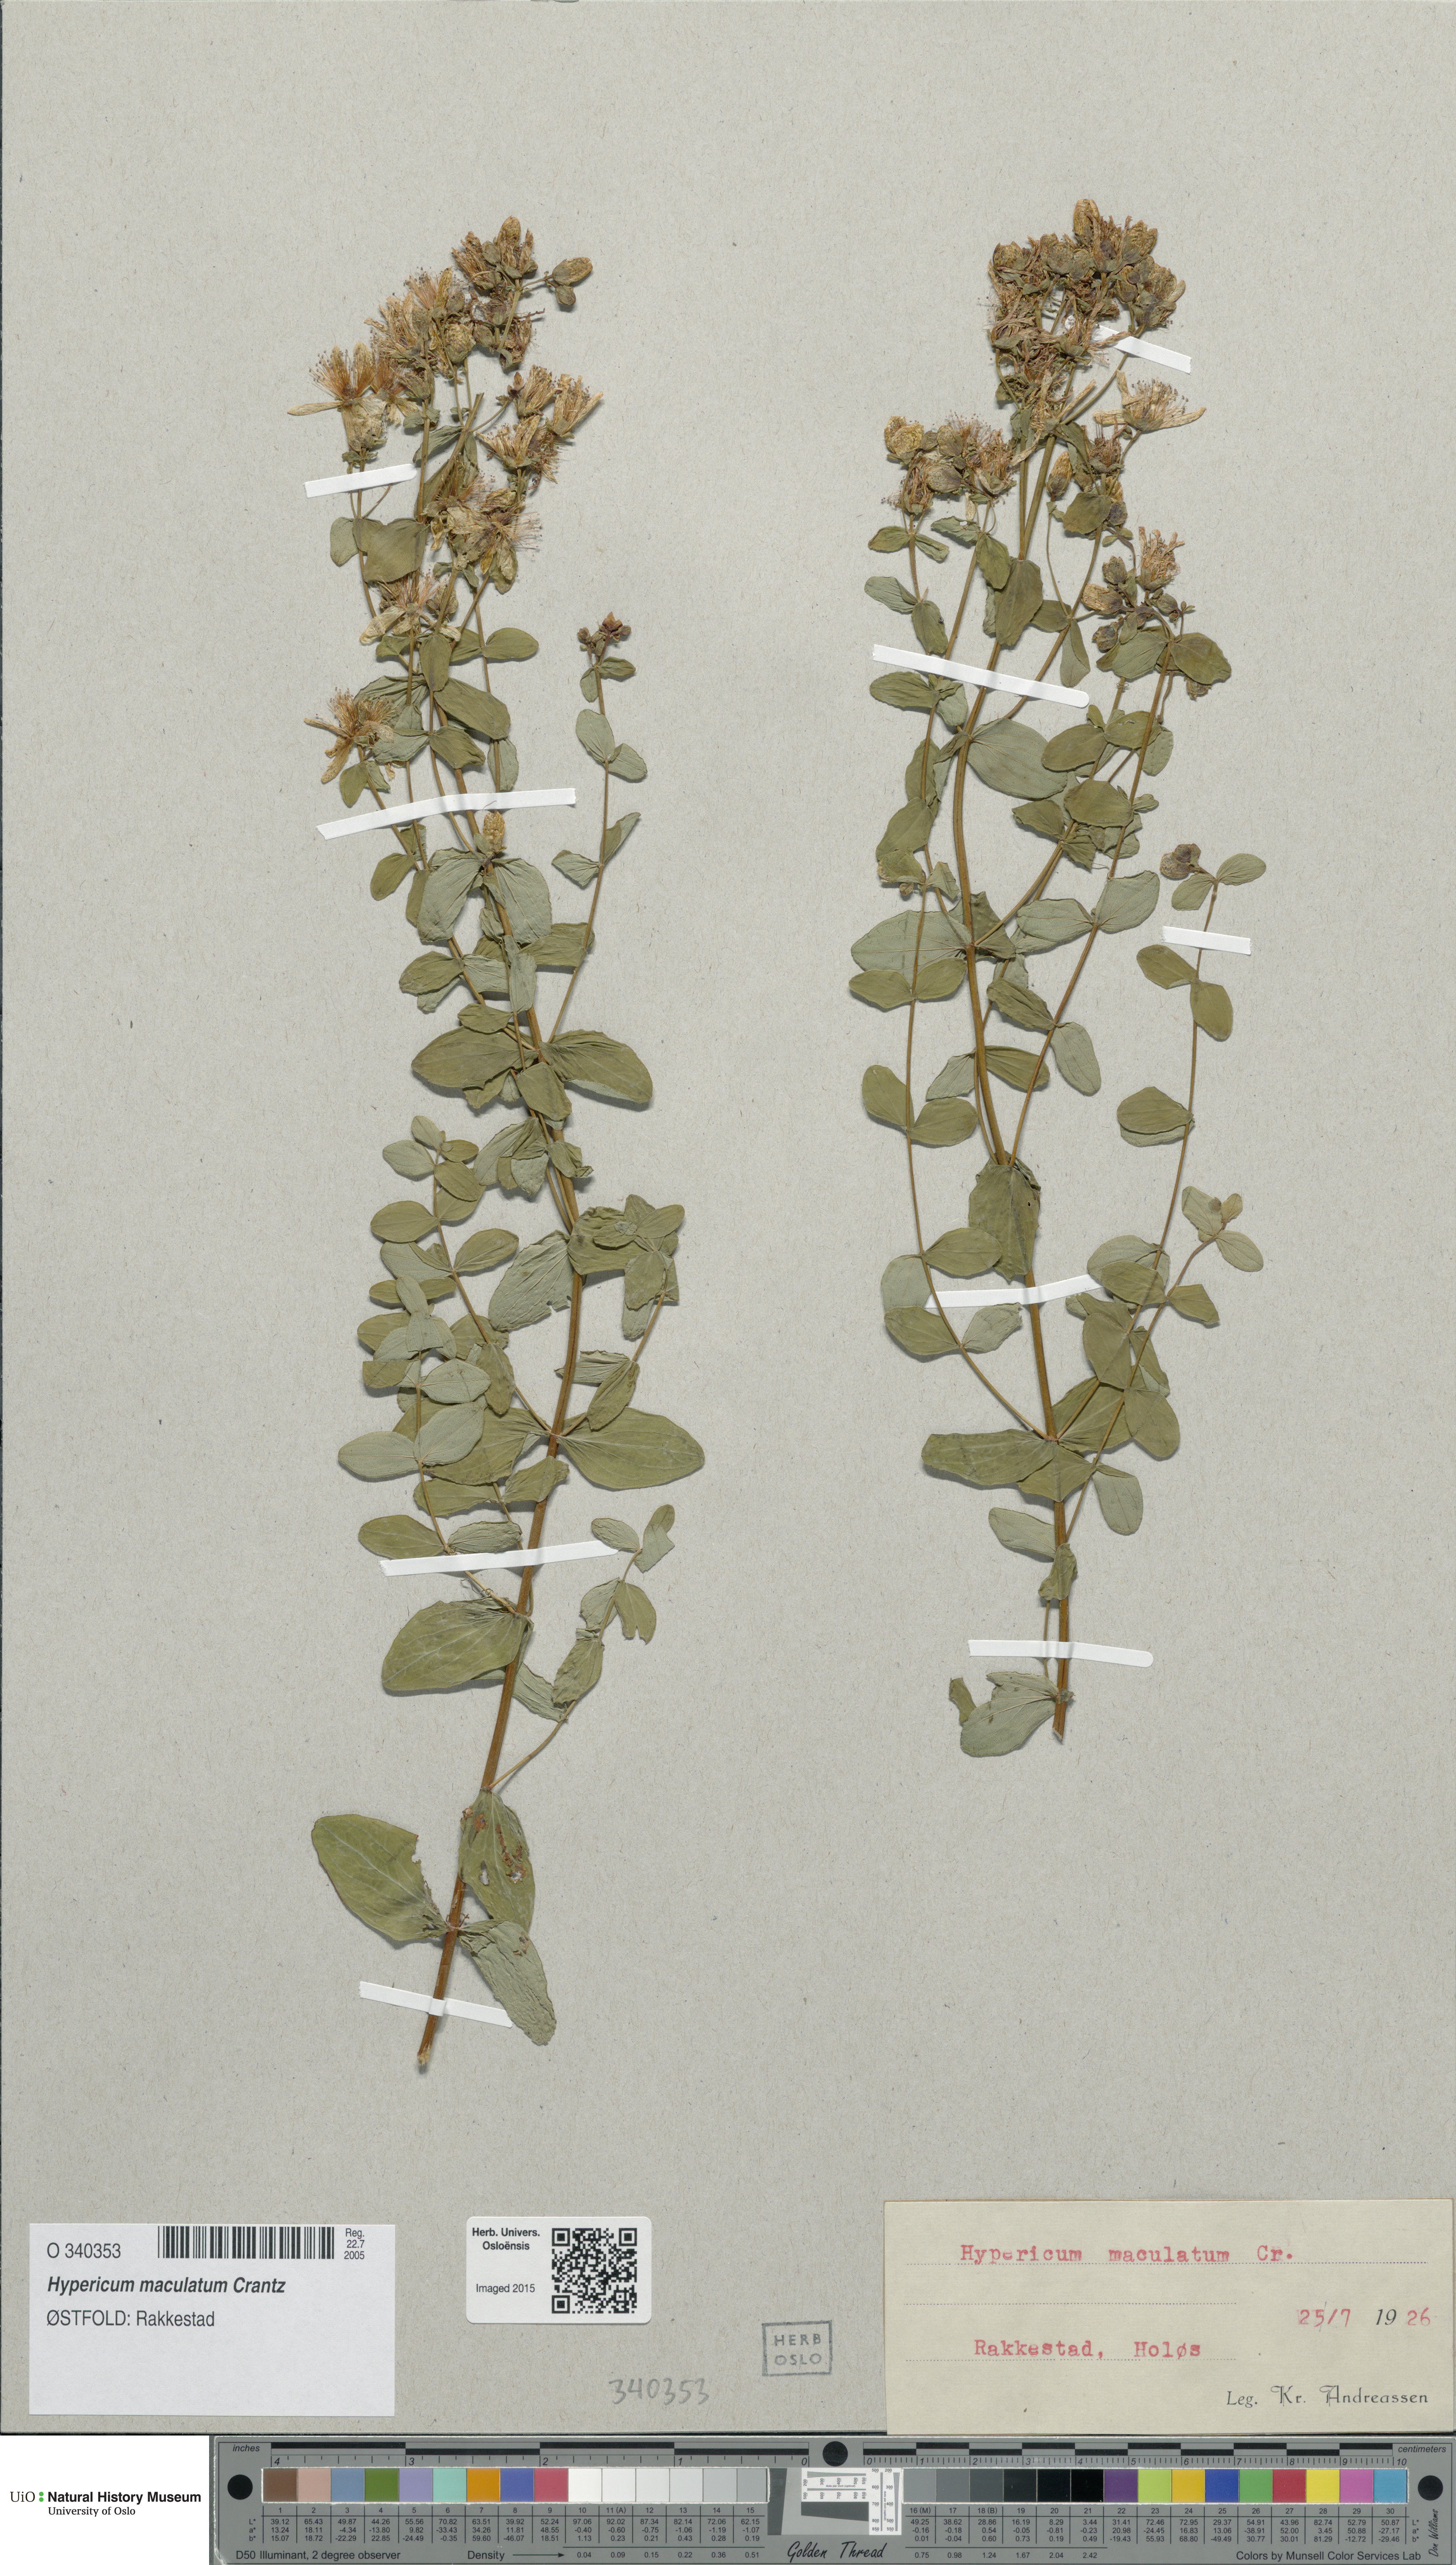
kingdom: Plantae
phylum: Tracheophyta
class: Magnoliopsida
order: Malpighiales
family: Hypericaceae
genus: Hypericum
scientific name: Hypericum maculatum
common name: Imperforate st. john's-wort
